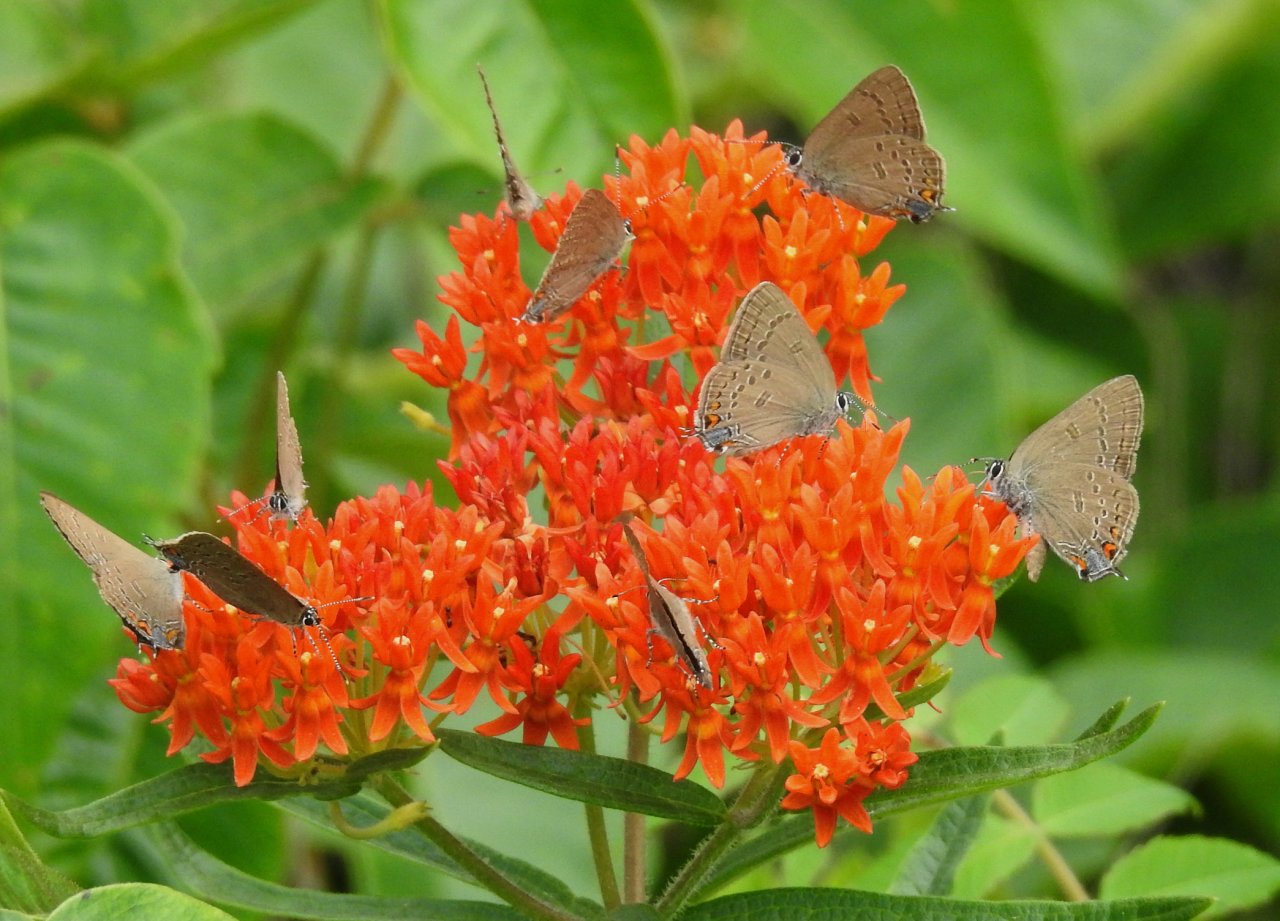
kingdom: Animalia
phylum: Arthropoda
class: Insecta
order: Lepidoptera
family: Lycaenidae
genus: Satyrium
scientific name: Satyrium edwardsii
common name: Edwards' Hairstreak
